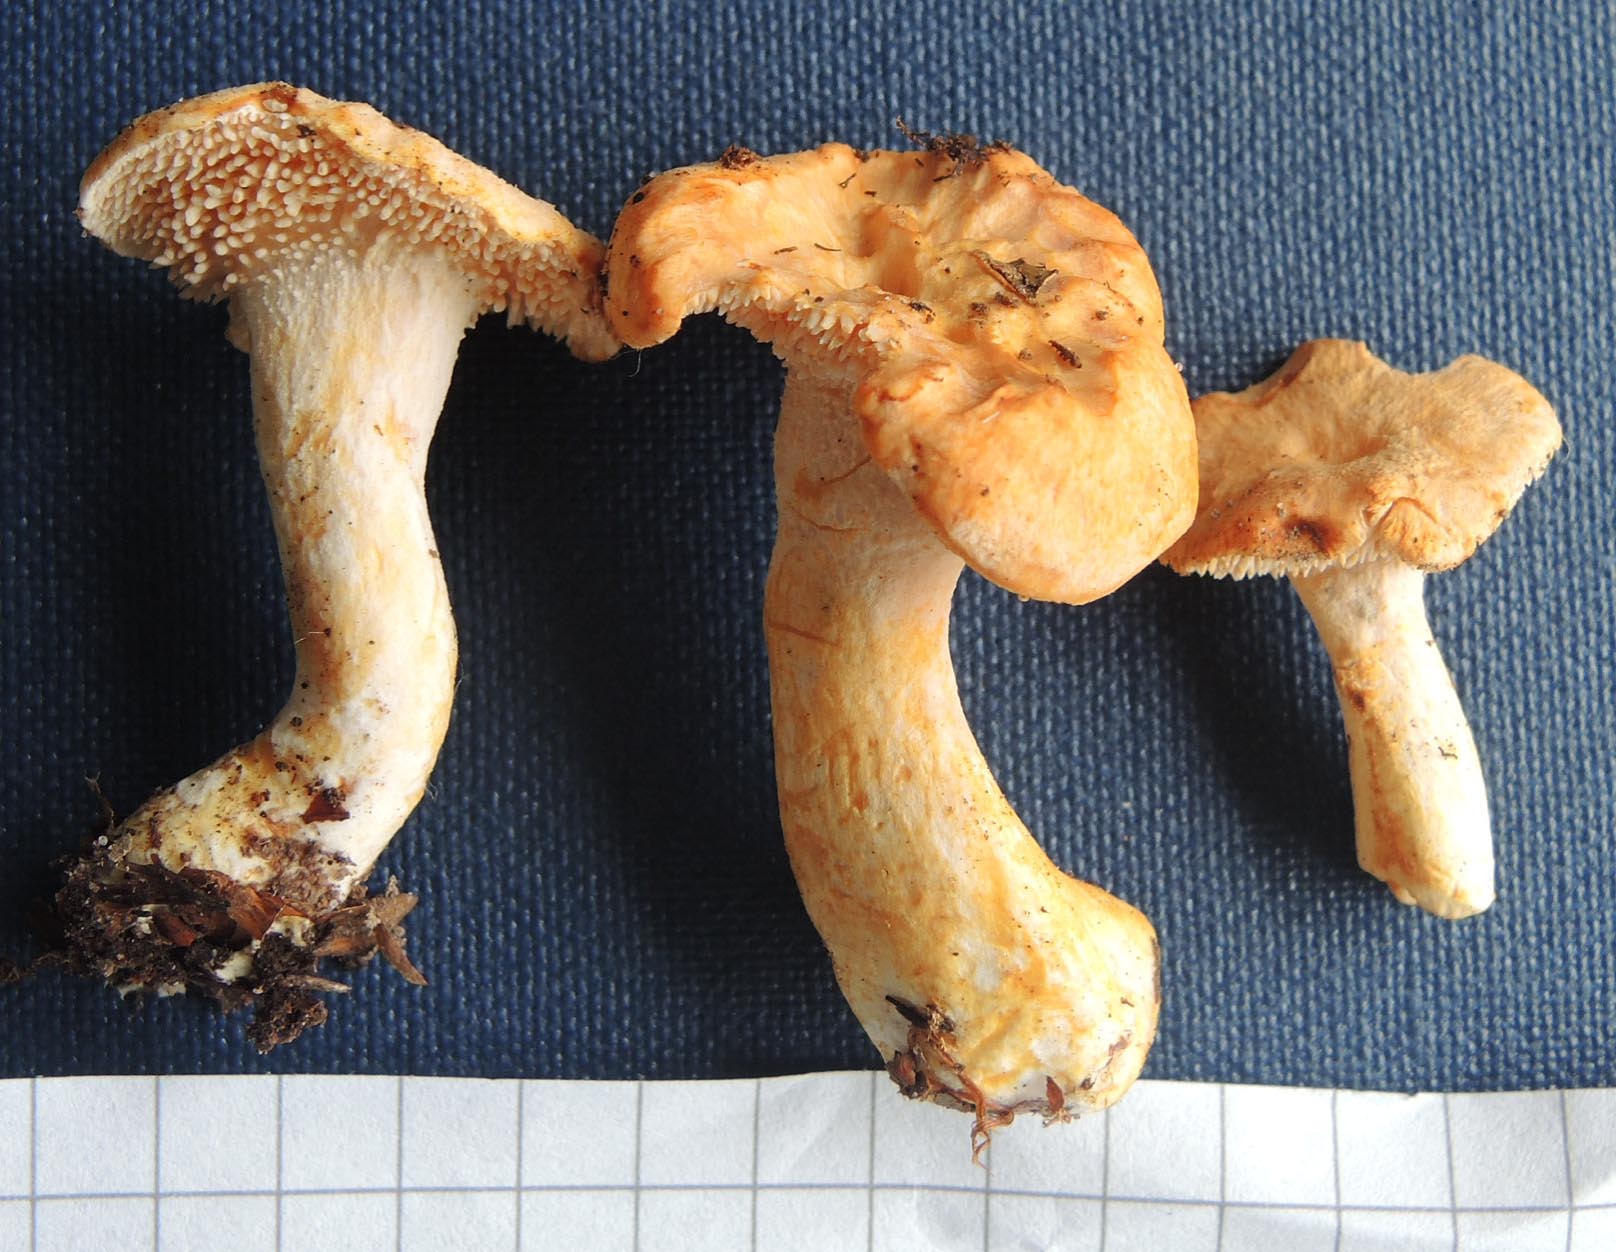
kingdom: Fungi
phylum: Basidiomycota
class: Agaricomycetes
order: Cantharellales
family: Hydnaceae
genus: Hydnum
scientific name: Hydnum rufescens
